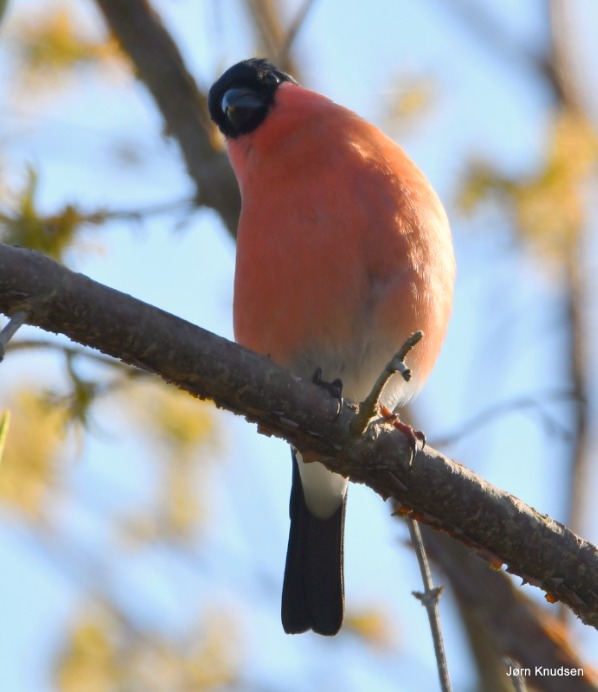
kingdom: Animalia
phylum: Chordata
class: Aves
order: Passeriformes
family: Fringillidae
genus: Pyrrhula
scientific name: Pyrrhula pyrrhula
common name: Dompap
